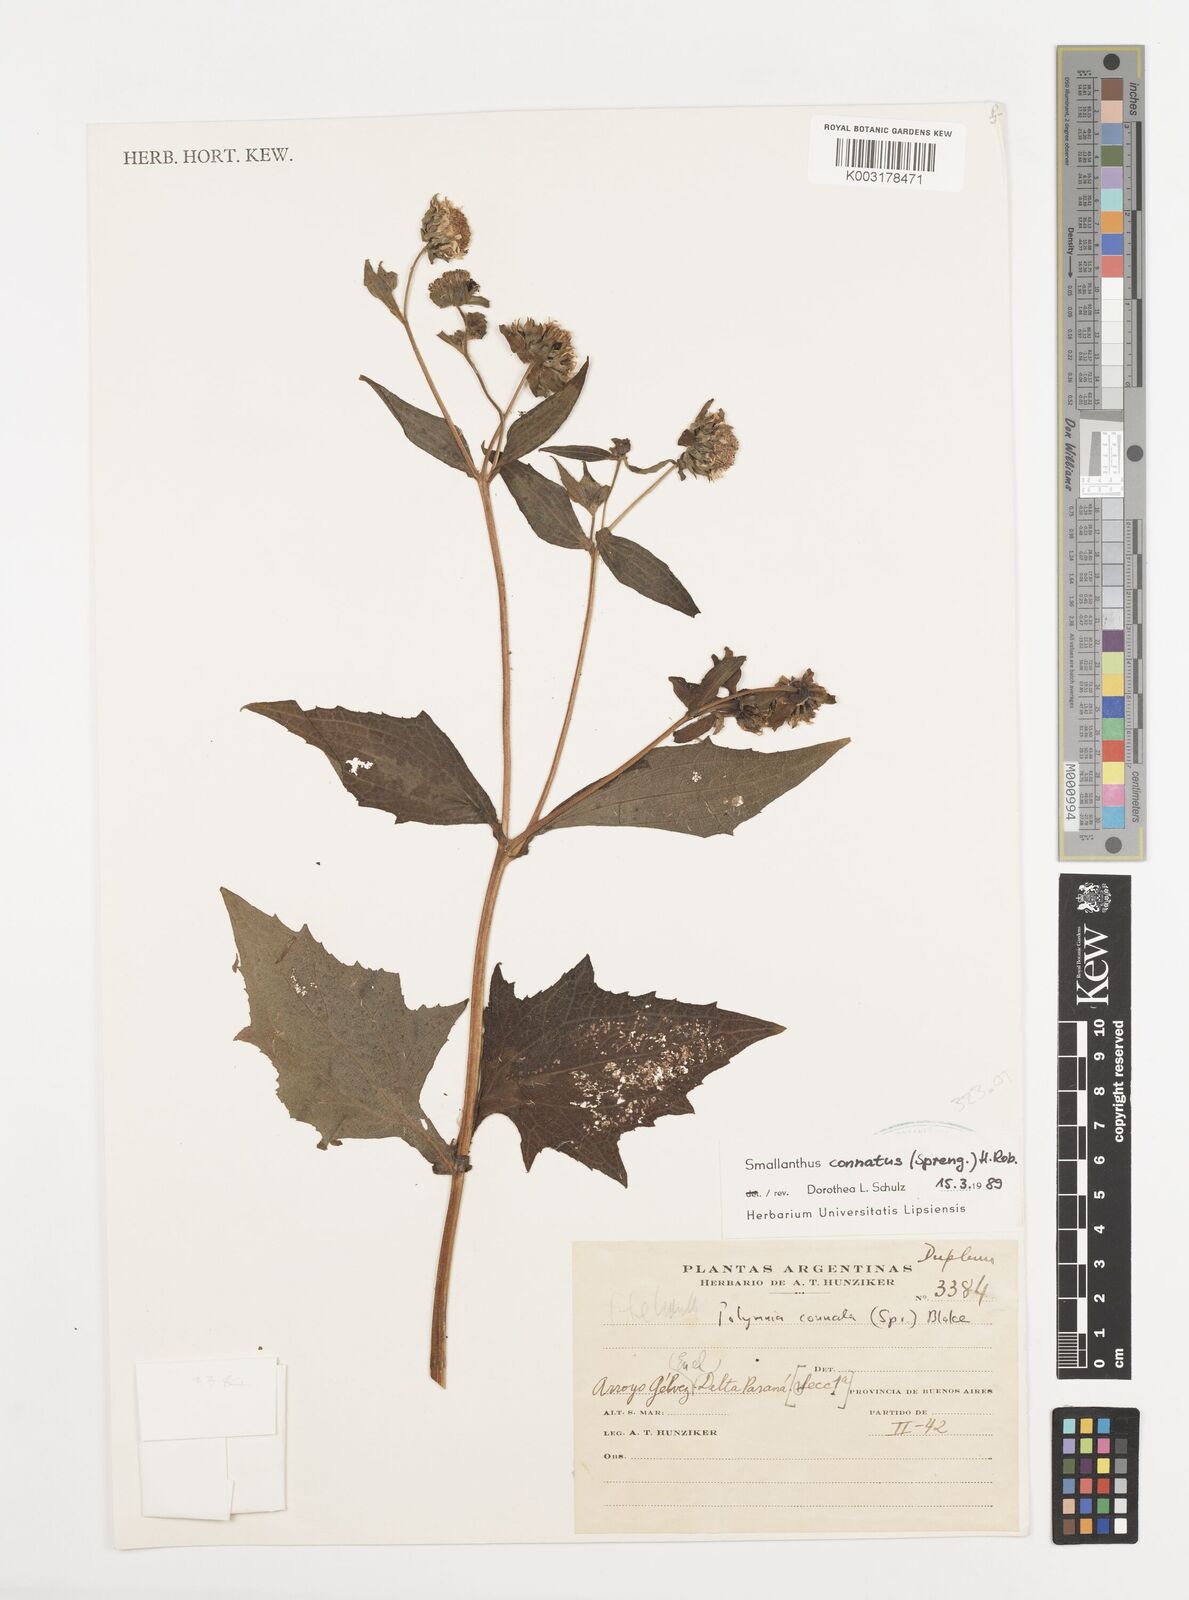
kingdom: Plantae
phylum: Tracheophyta
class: Magnoliopsida
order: Asterales
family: Asteraceae
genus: Smallanthus
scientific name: Smallanthus connatus
